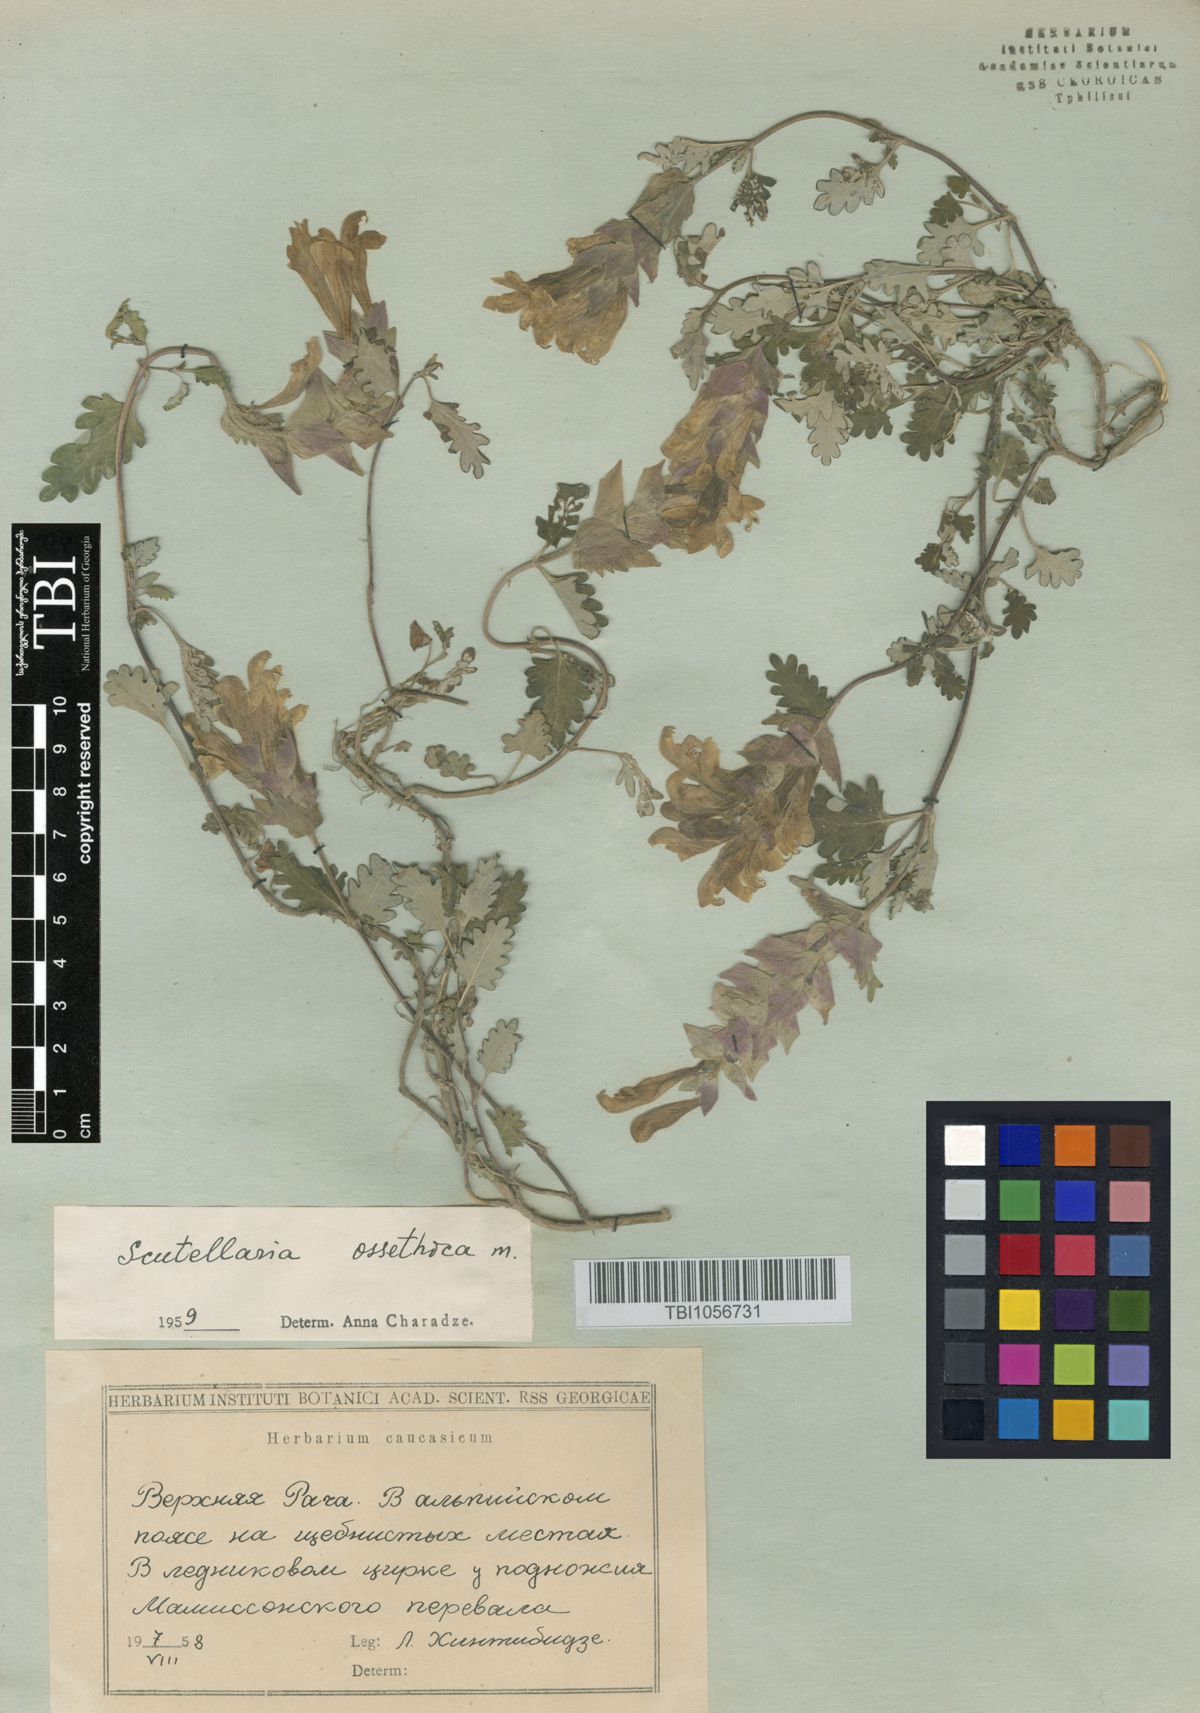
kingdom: Plantae
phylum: Tracheophyta
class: Magnoliopsida
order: Lamiales
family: Lamiaceae
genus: Scutellaria
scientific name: Scutellaria ossethica
